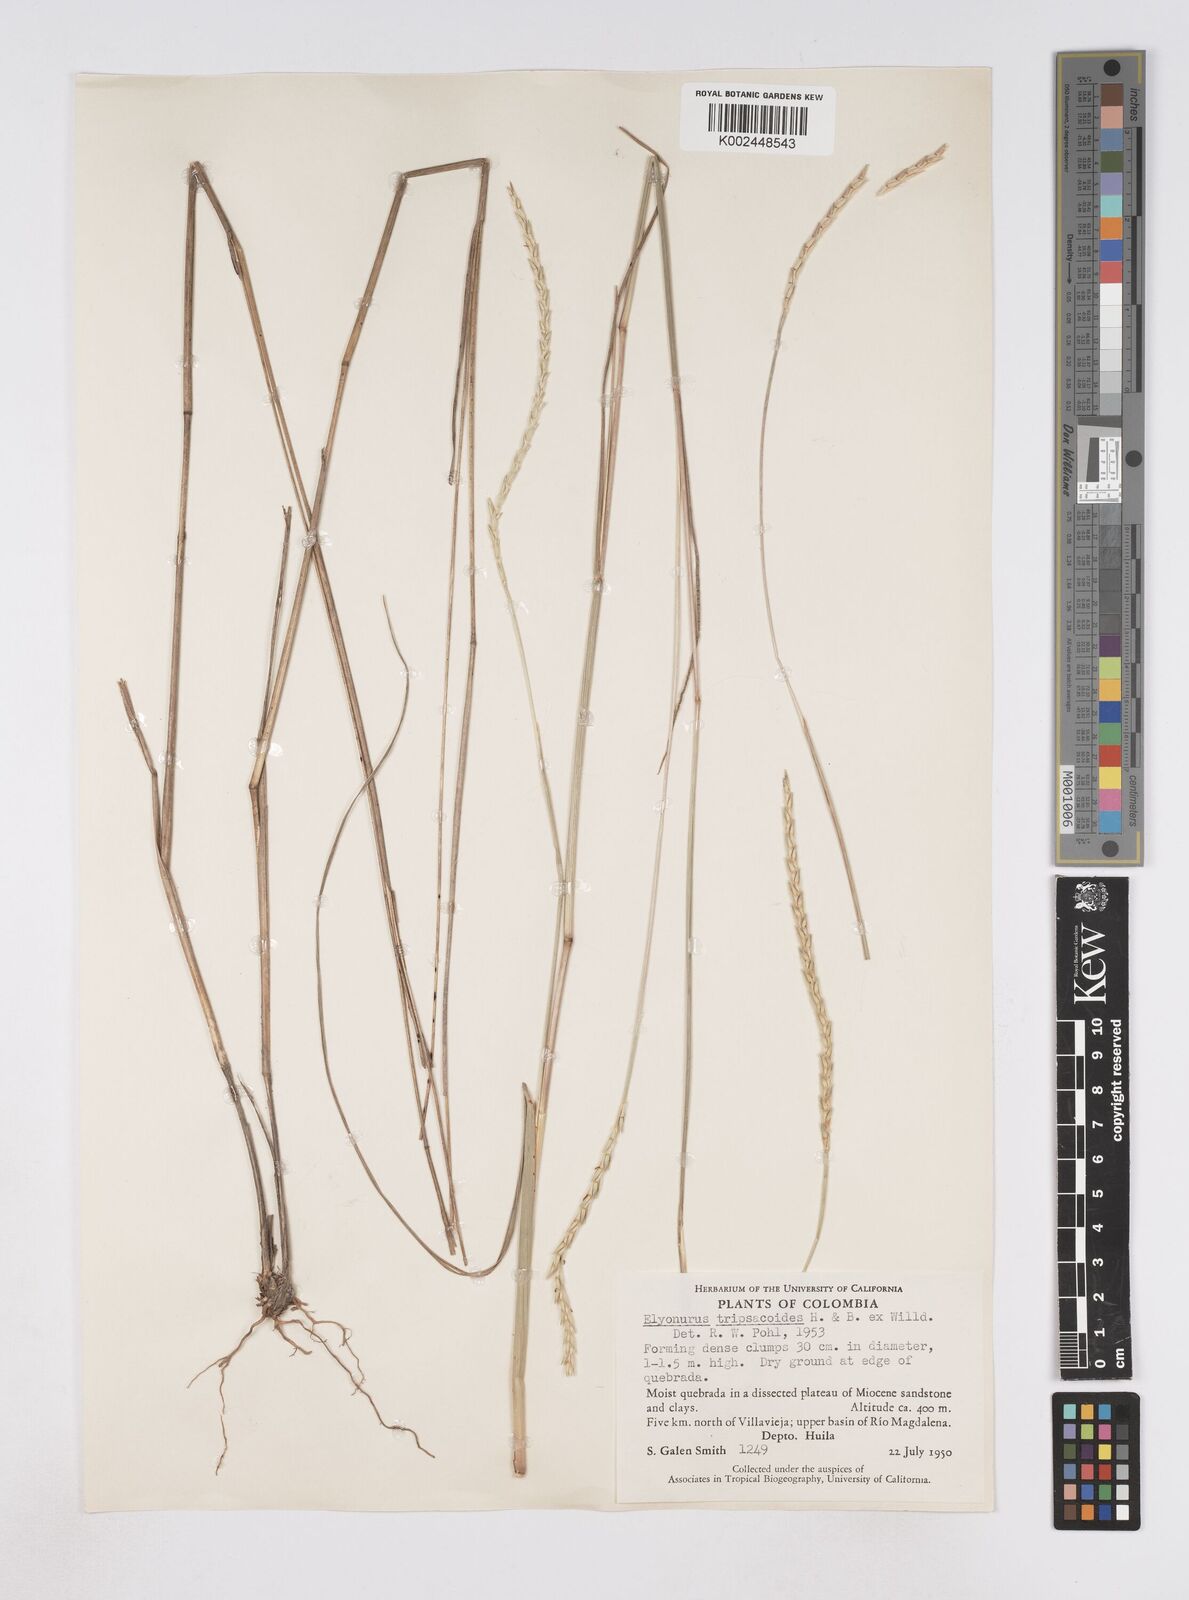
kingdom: Plantae
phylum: Tracheophyta
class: Liliopsida
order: Poales
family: Poaceae
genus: Elionurus
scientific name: Elionurus muticus
